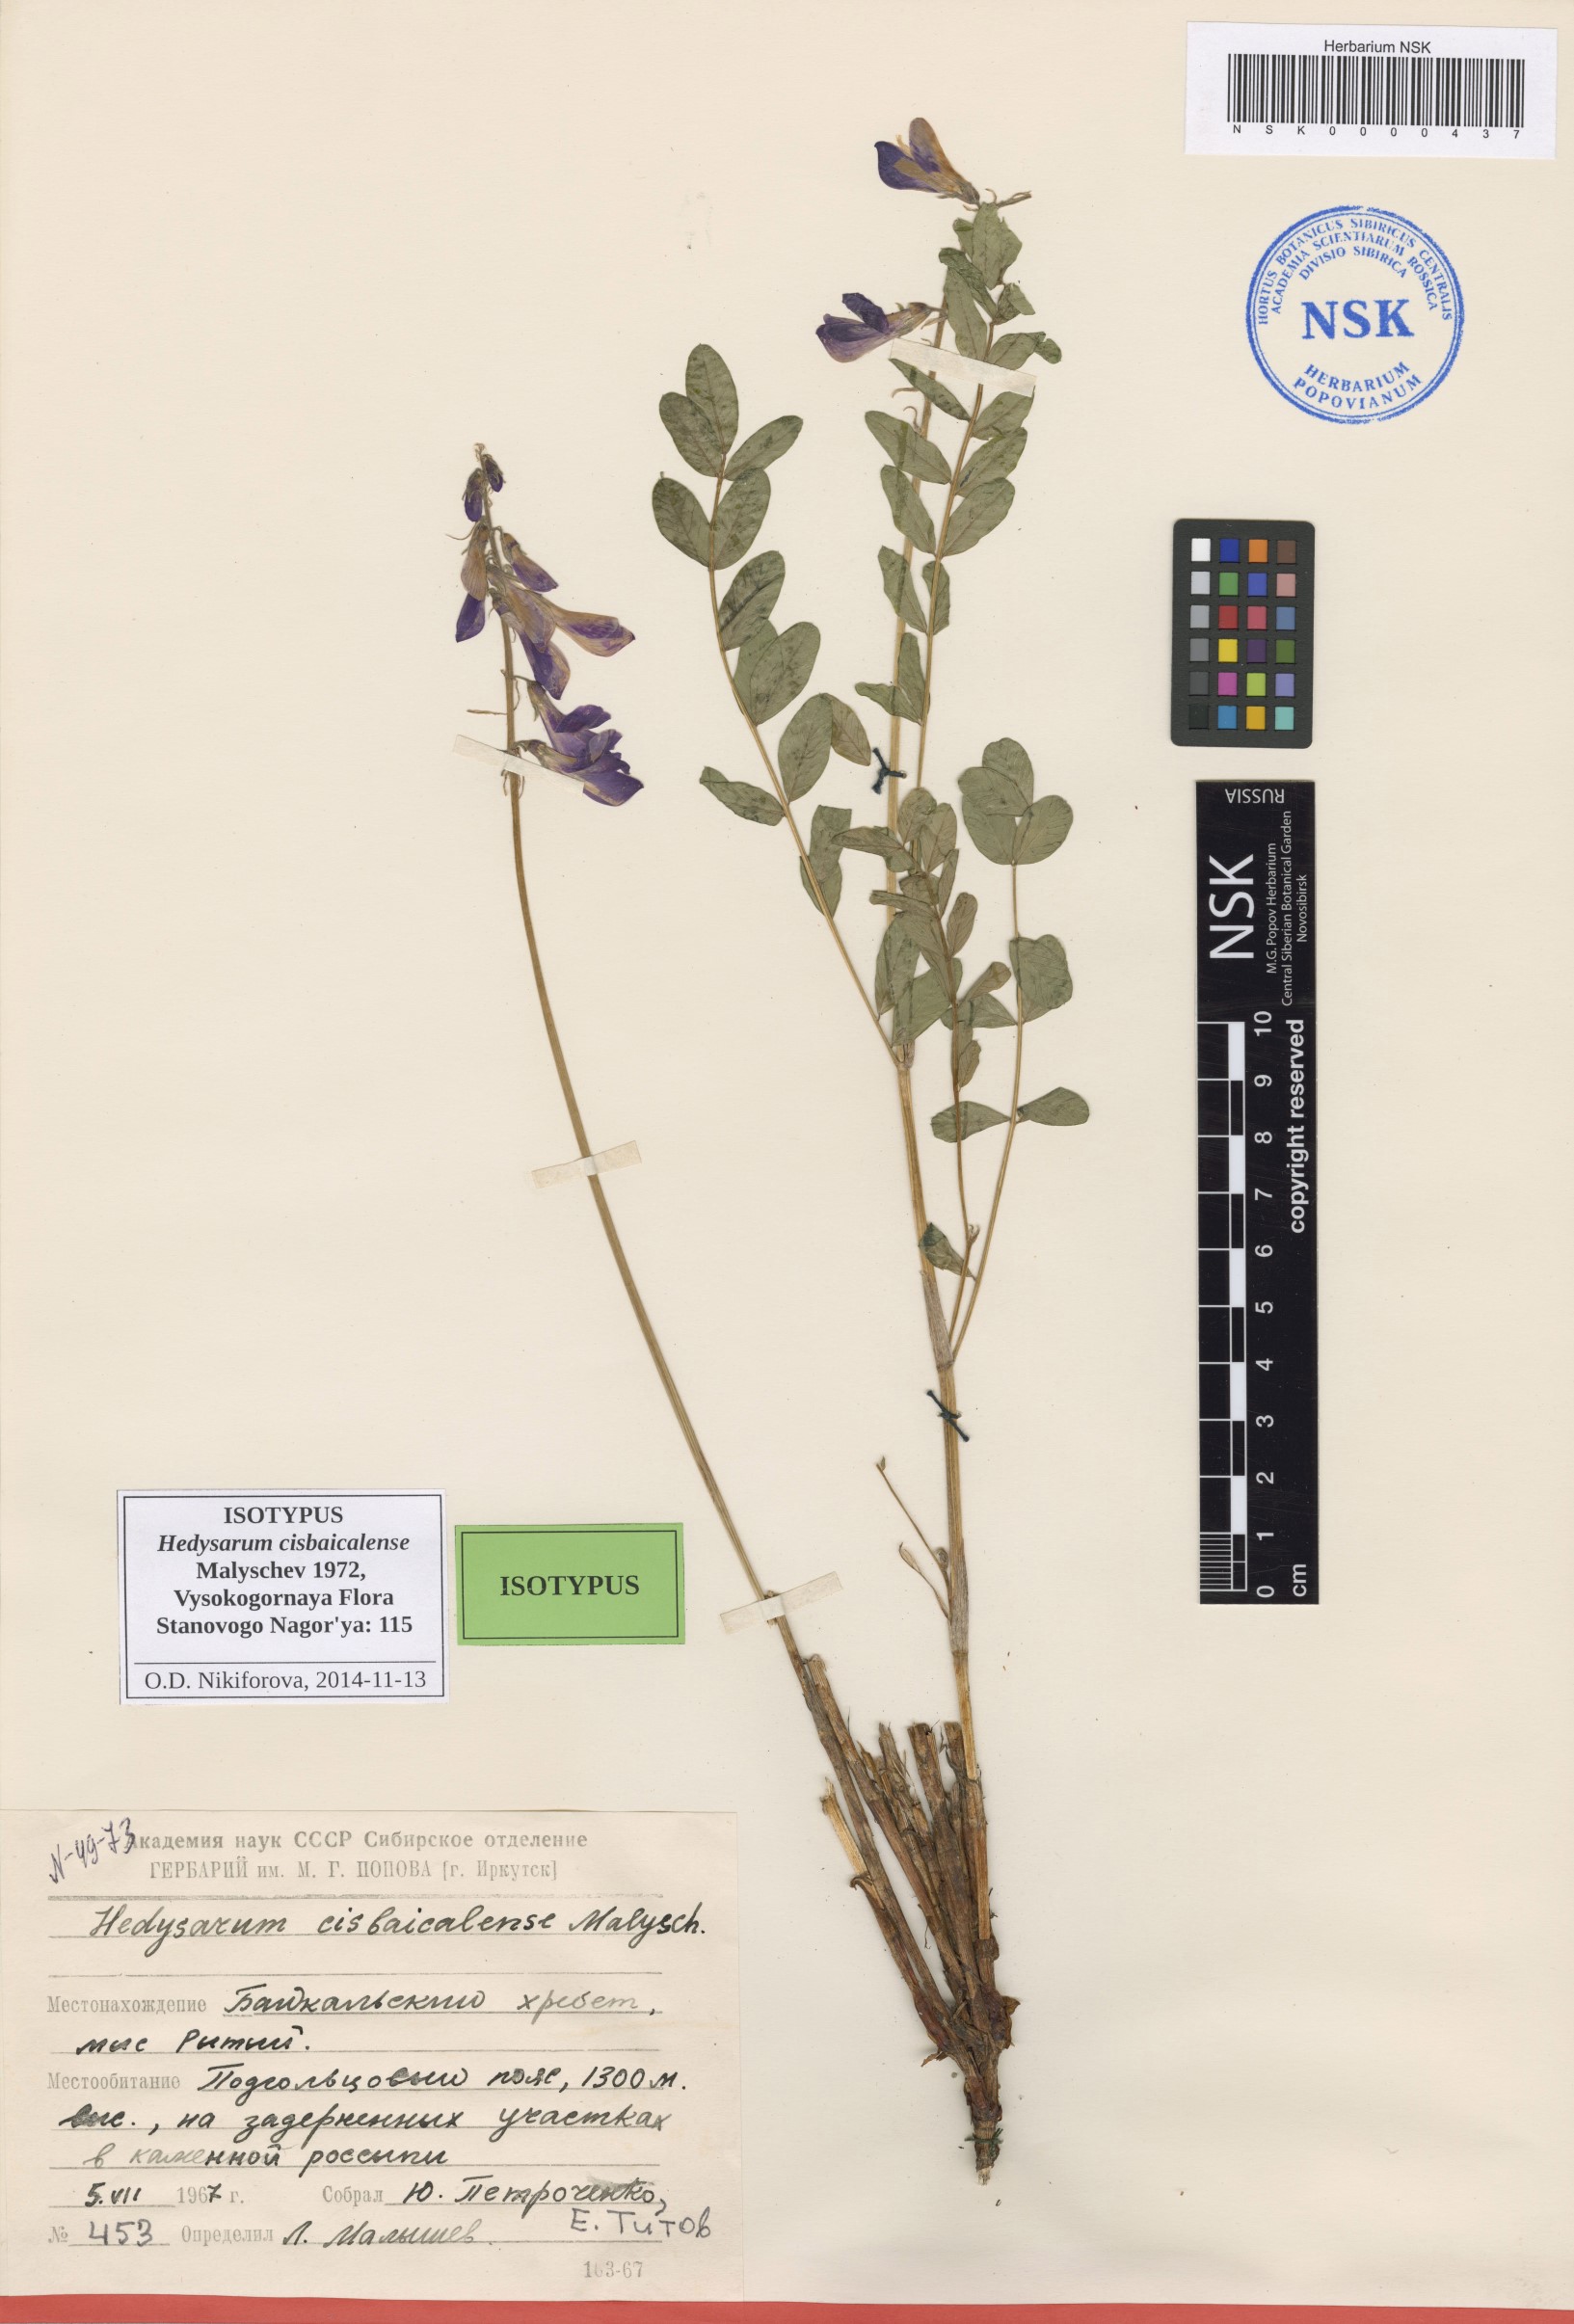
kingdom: Plantae
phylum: Tracheophyta
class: Magnoliopsida
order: Fabales
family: Fabaceae
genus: Hedysarum
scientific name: Hedysarum cisbaicalense
